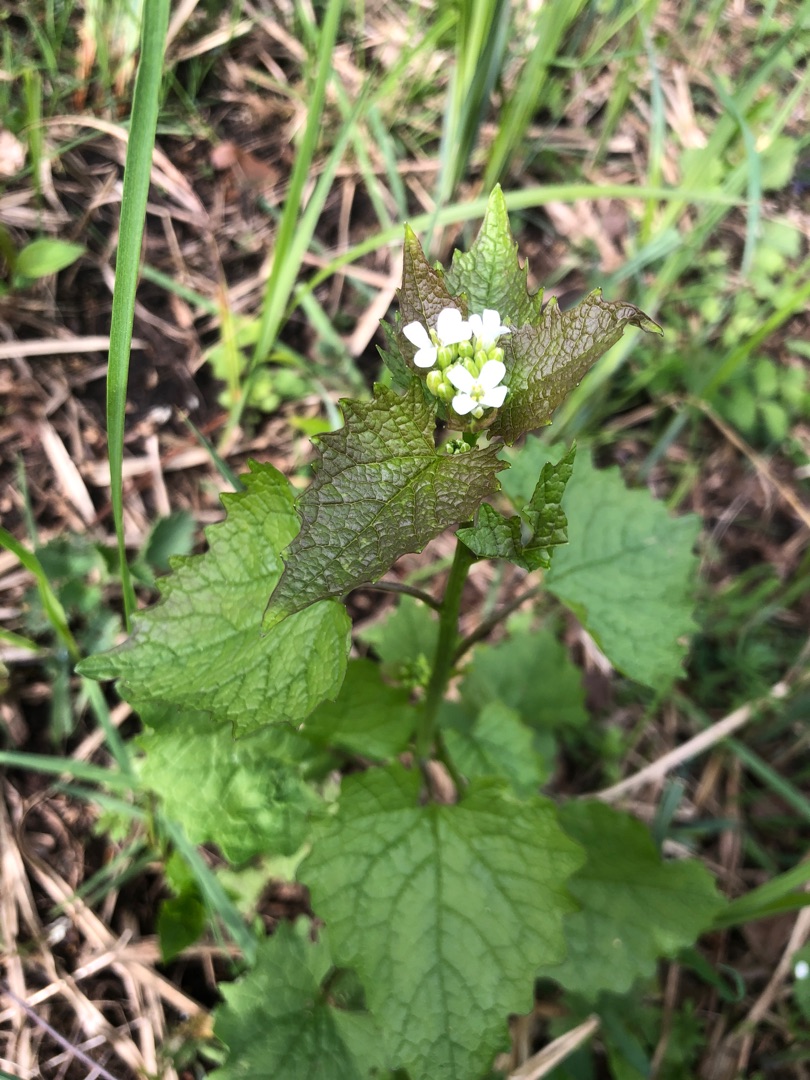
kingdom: Plantae
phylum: Tracheophyta
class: Magnoliopsida
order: Brassicales
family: Brassicaceae
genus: Alliaria
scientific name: Alliaria petiolata
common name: Løgkarse
